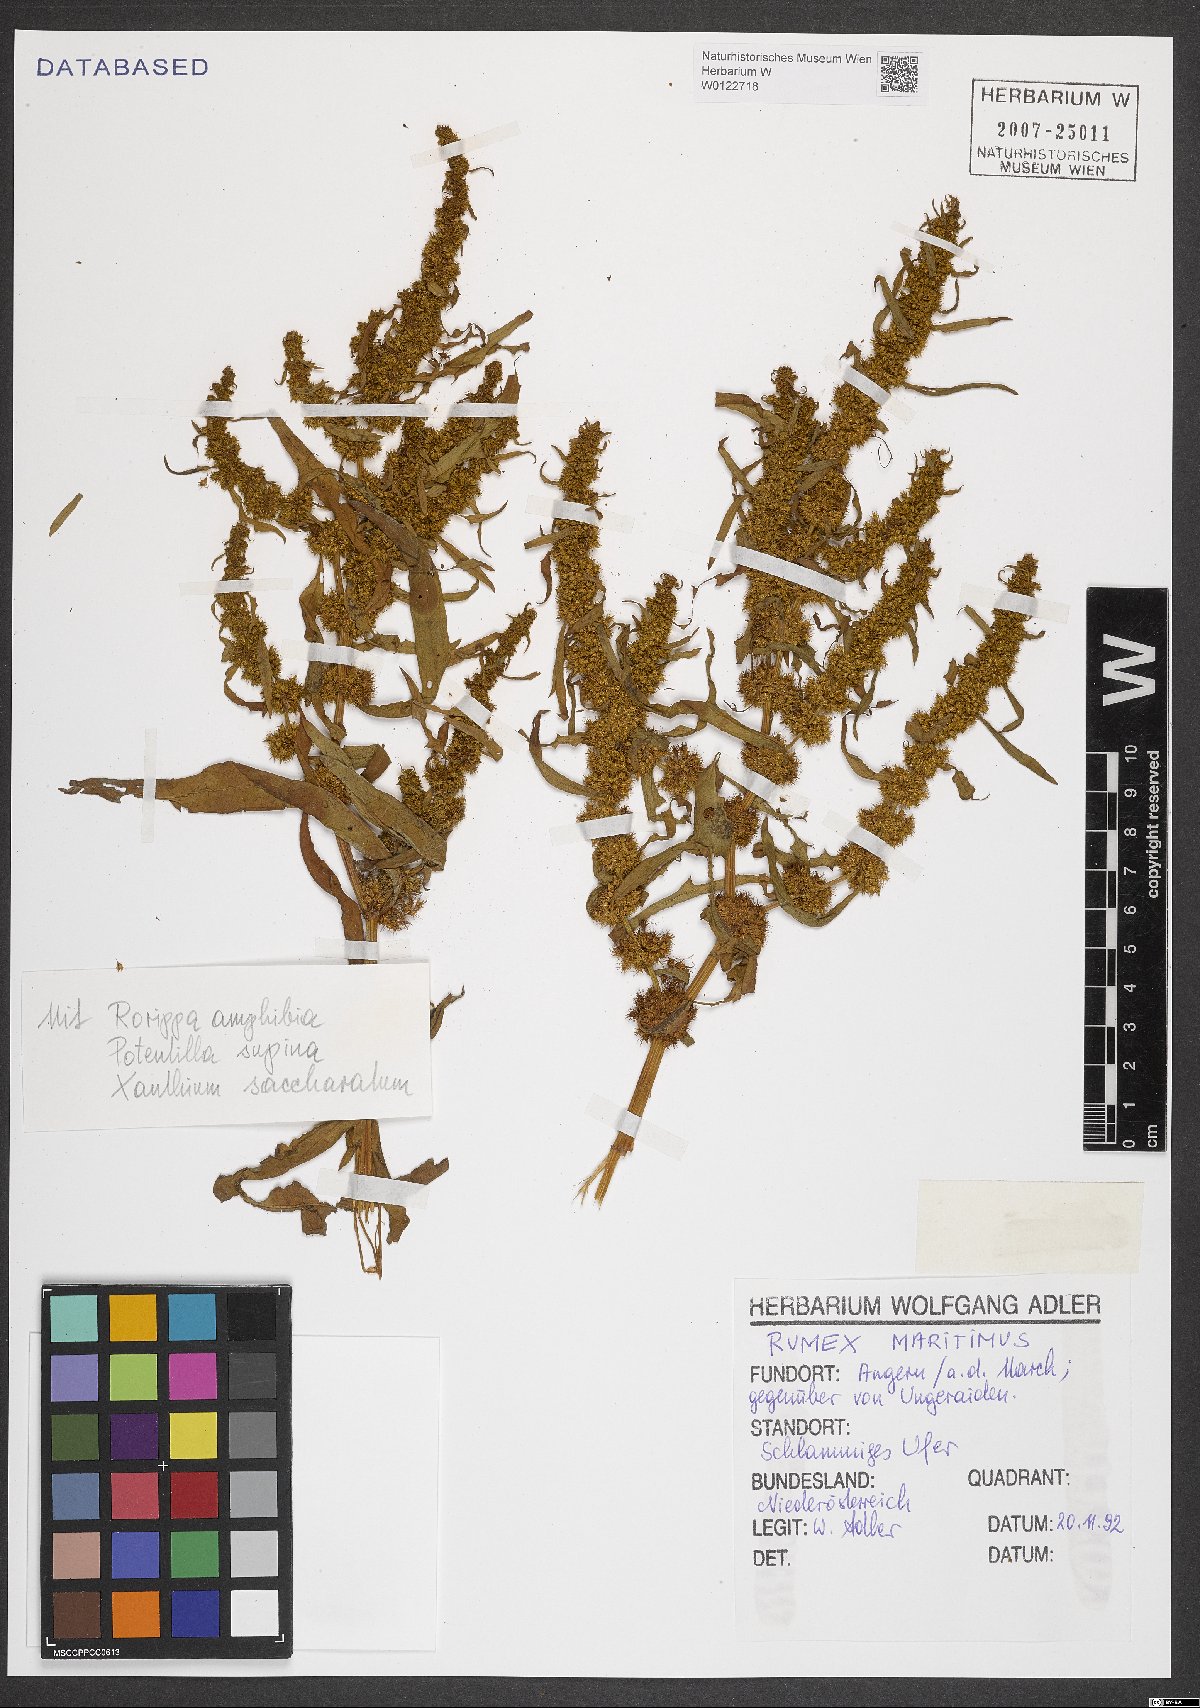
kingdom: Plantae
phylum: Tracheophyta
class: Magnoliopsida
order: Caryophyllales
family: Polygonaceae
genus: Rumex
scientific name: Rumex maritimus
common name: Golden dock
